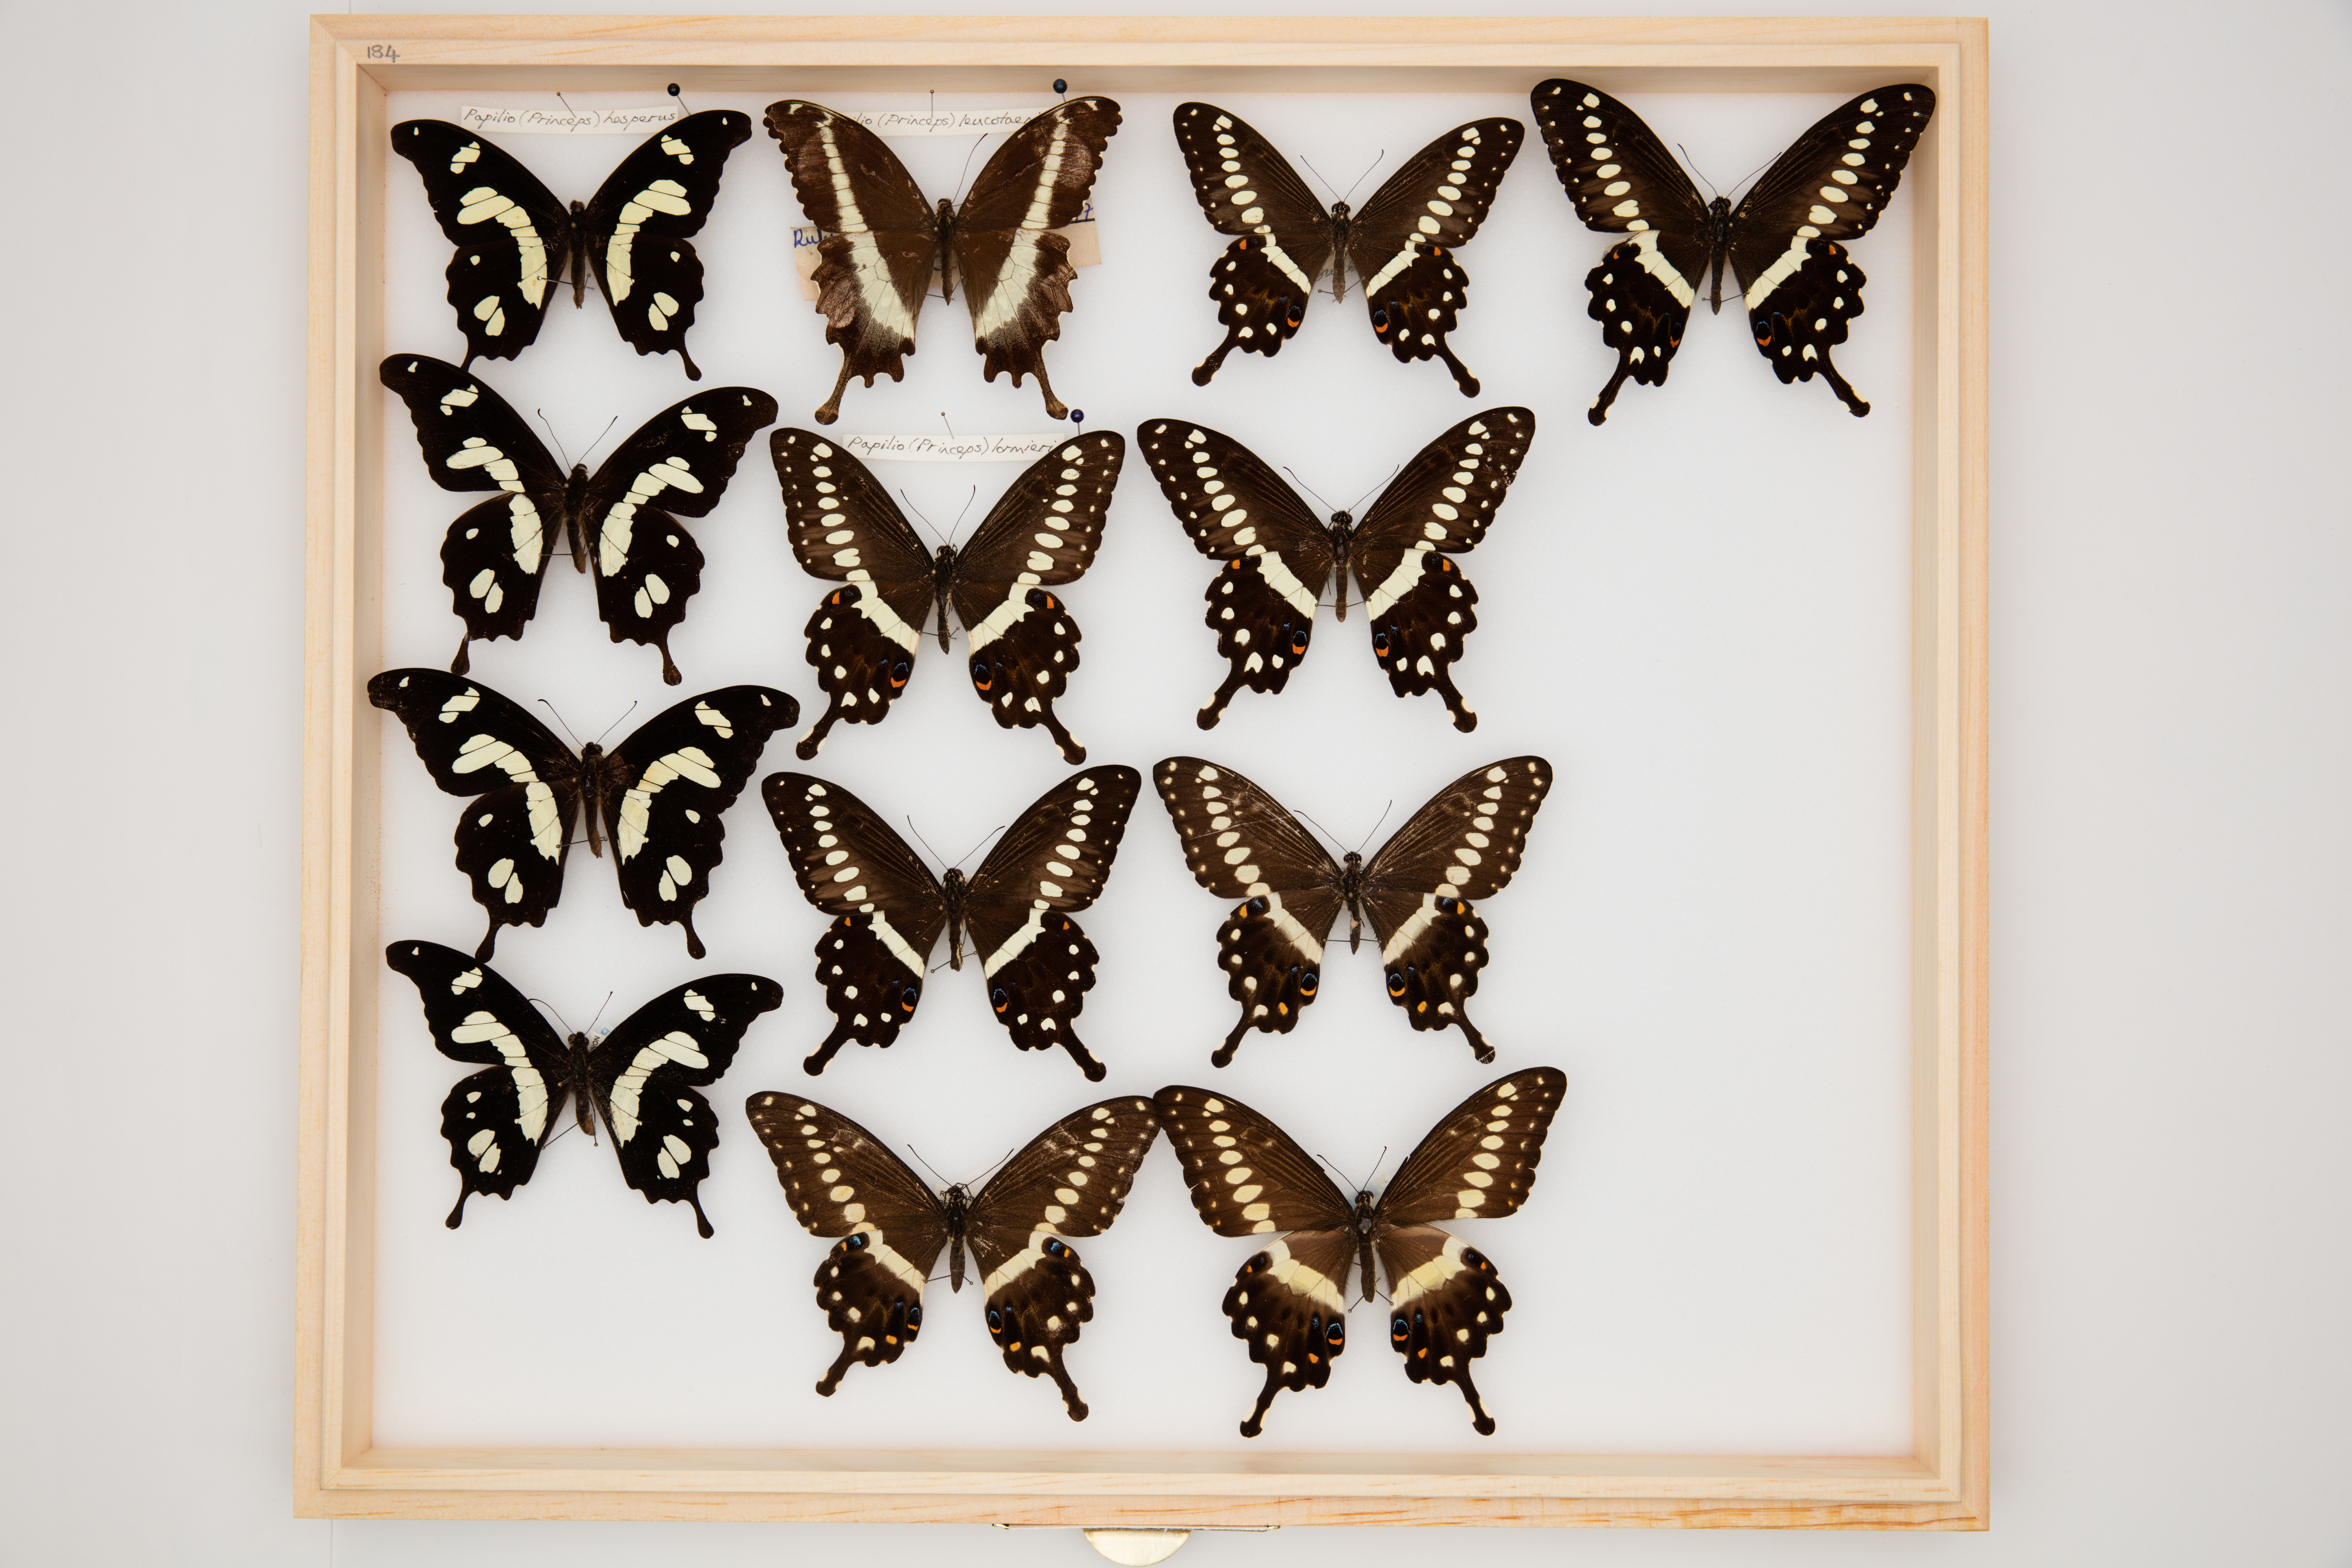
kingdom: Animalia
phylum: Arthropoda
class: Insecta
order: Lepidoptera
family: Papilionidae
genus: Papilio
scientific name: Papilio lormieri
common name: Central emperor swallowtail
